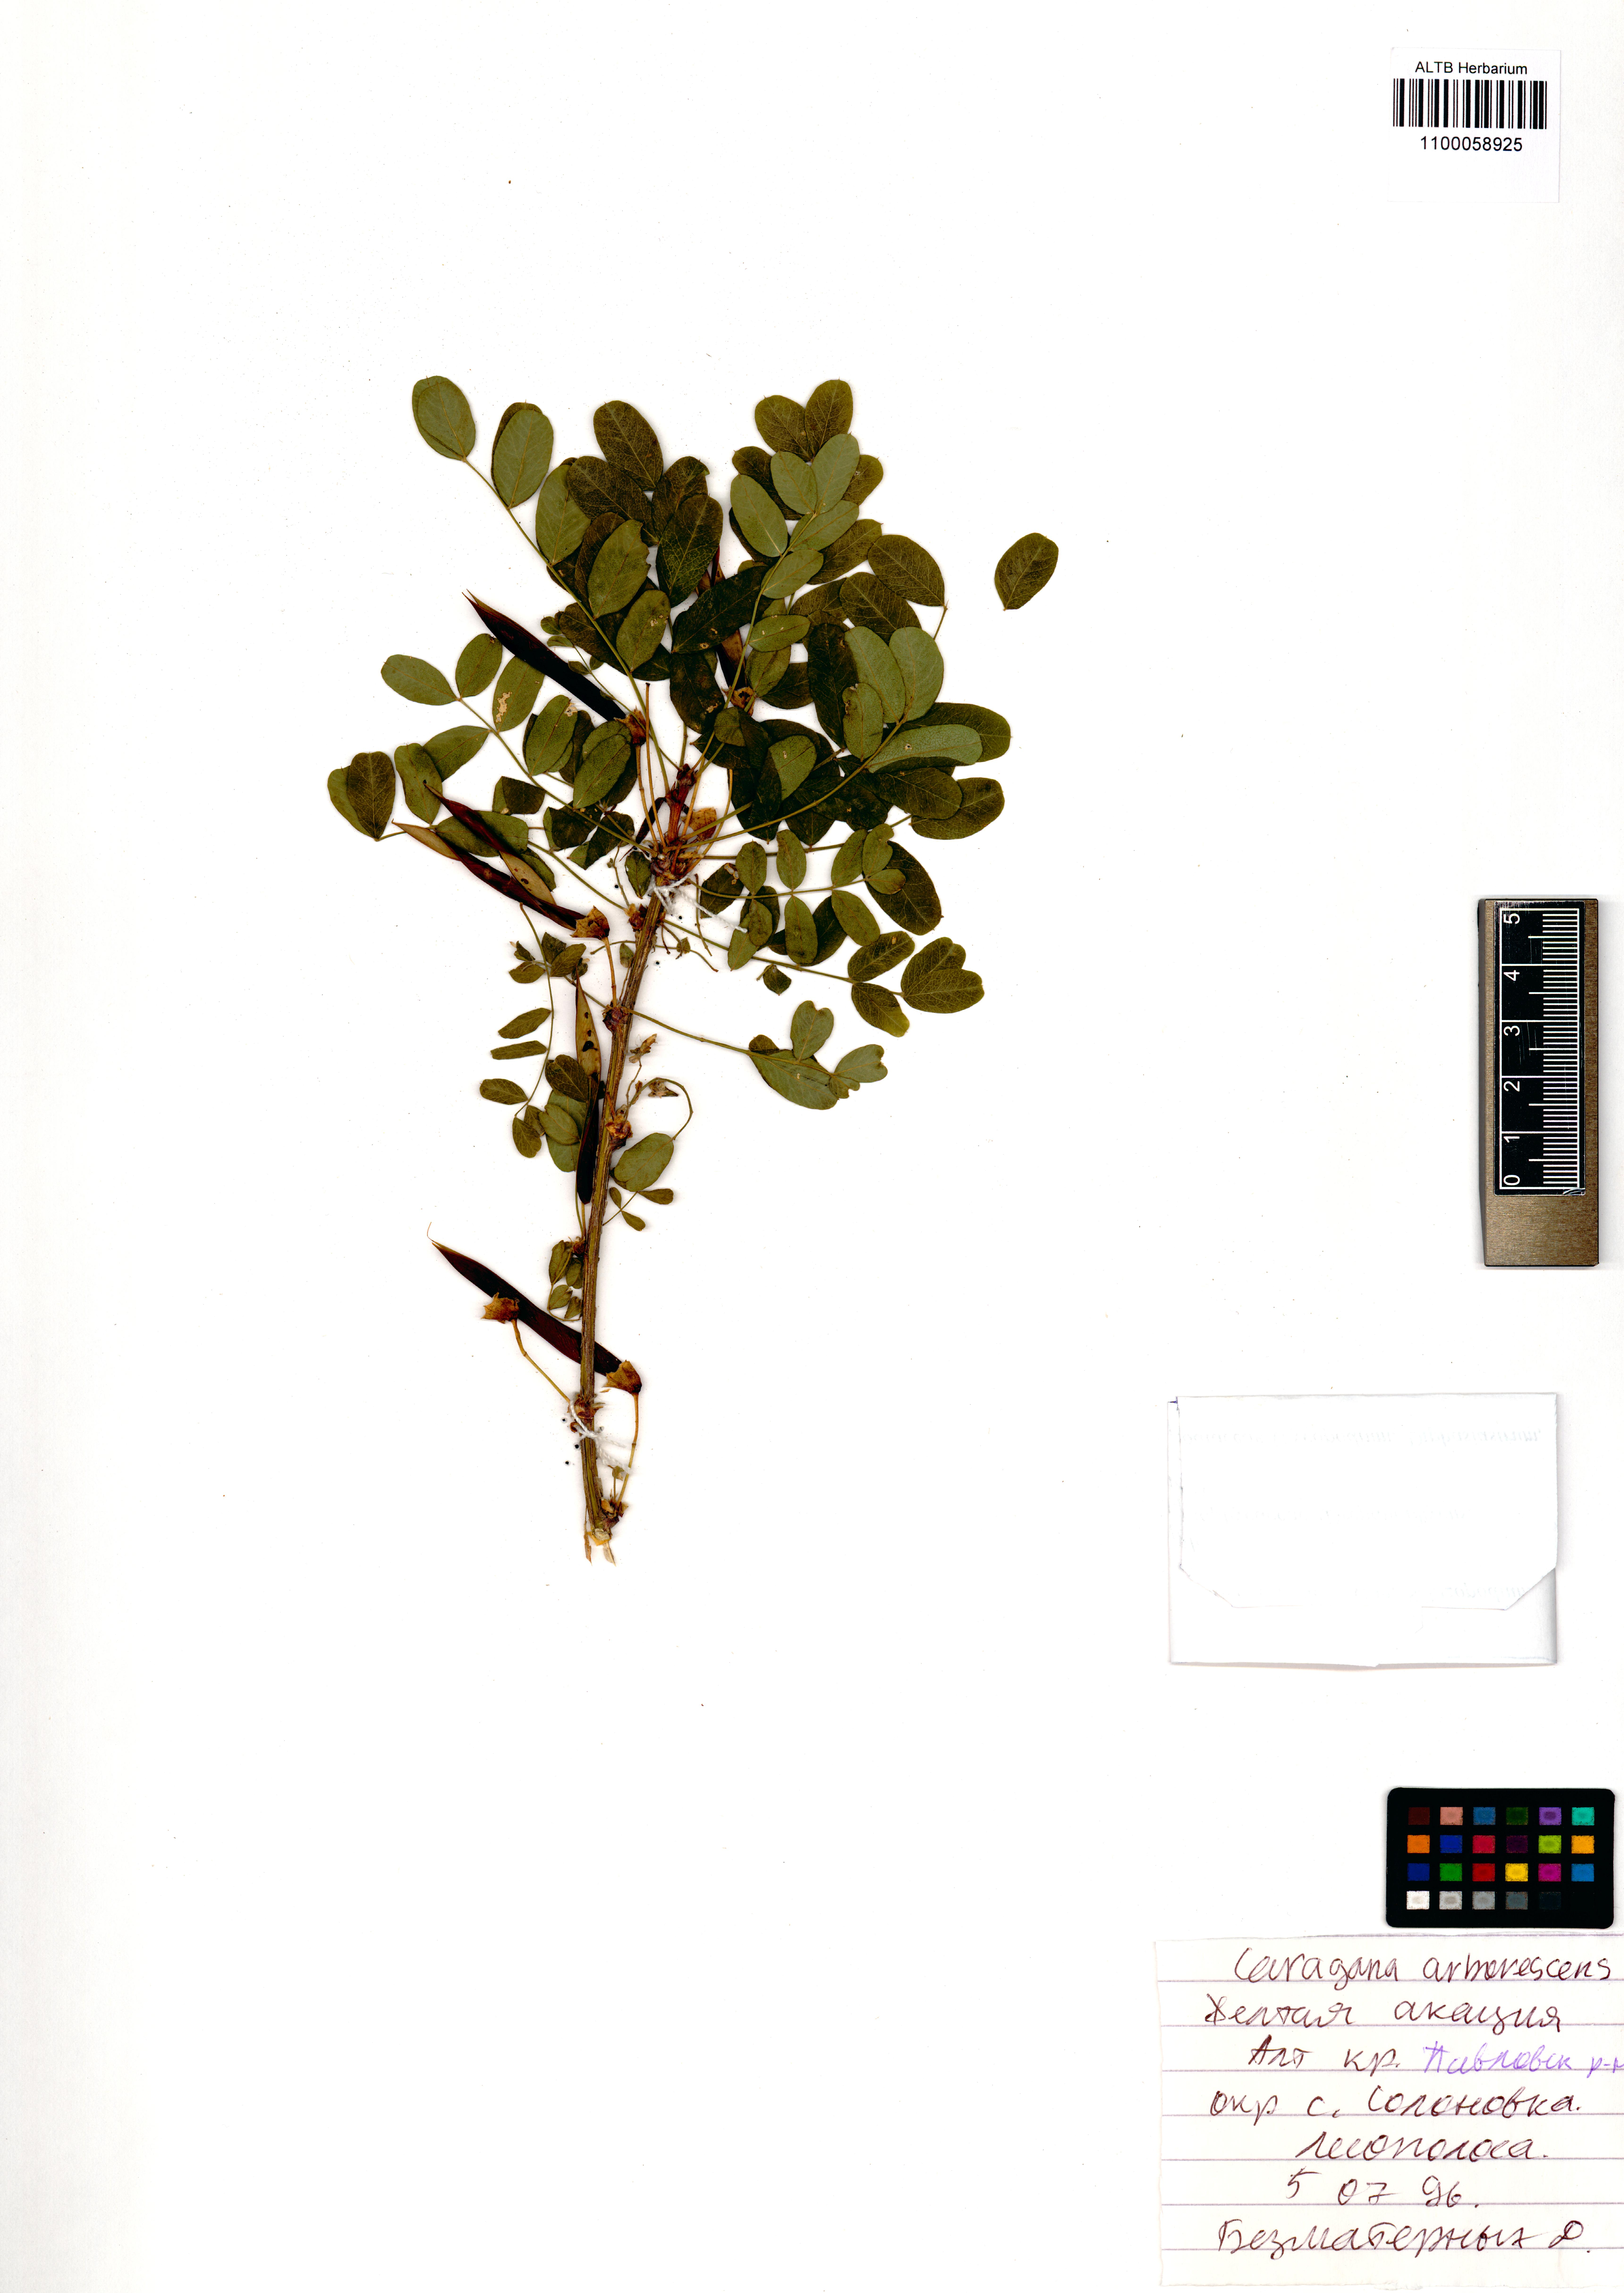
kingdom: Plantae
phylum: Tracheophyta
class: Magnoliopsida
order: Fabales
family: Fabaceae
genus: Caragana
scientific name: Caragana arborescens
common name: Siberian peashrub
